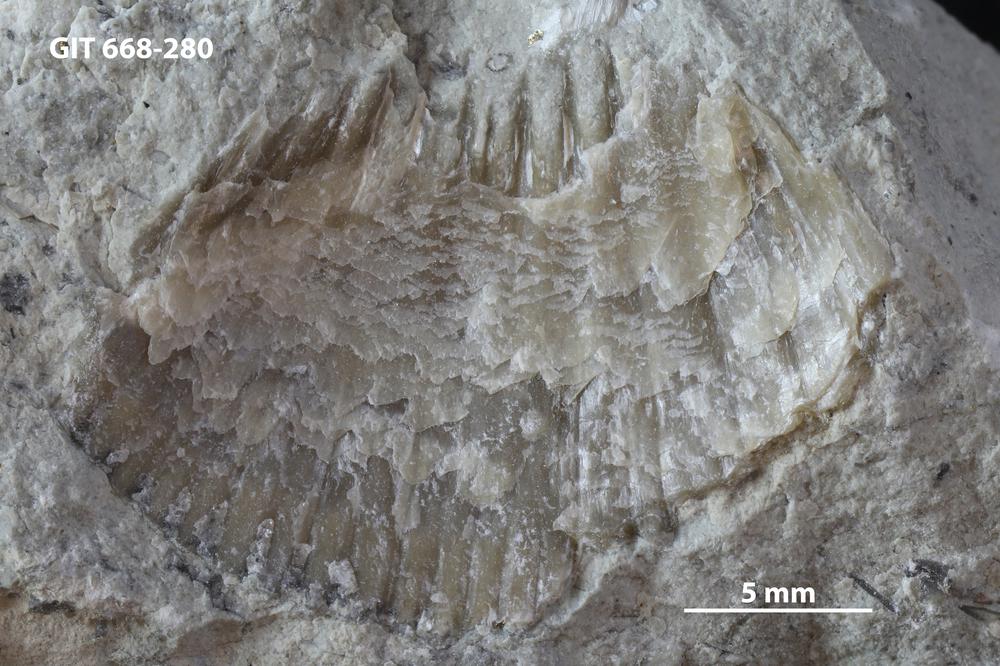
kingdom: Animalia
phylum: Brachiopoda
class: Rhynchonellata
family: Plaesiomyidae
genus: Plaesiomys
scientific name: Plaesiomys
